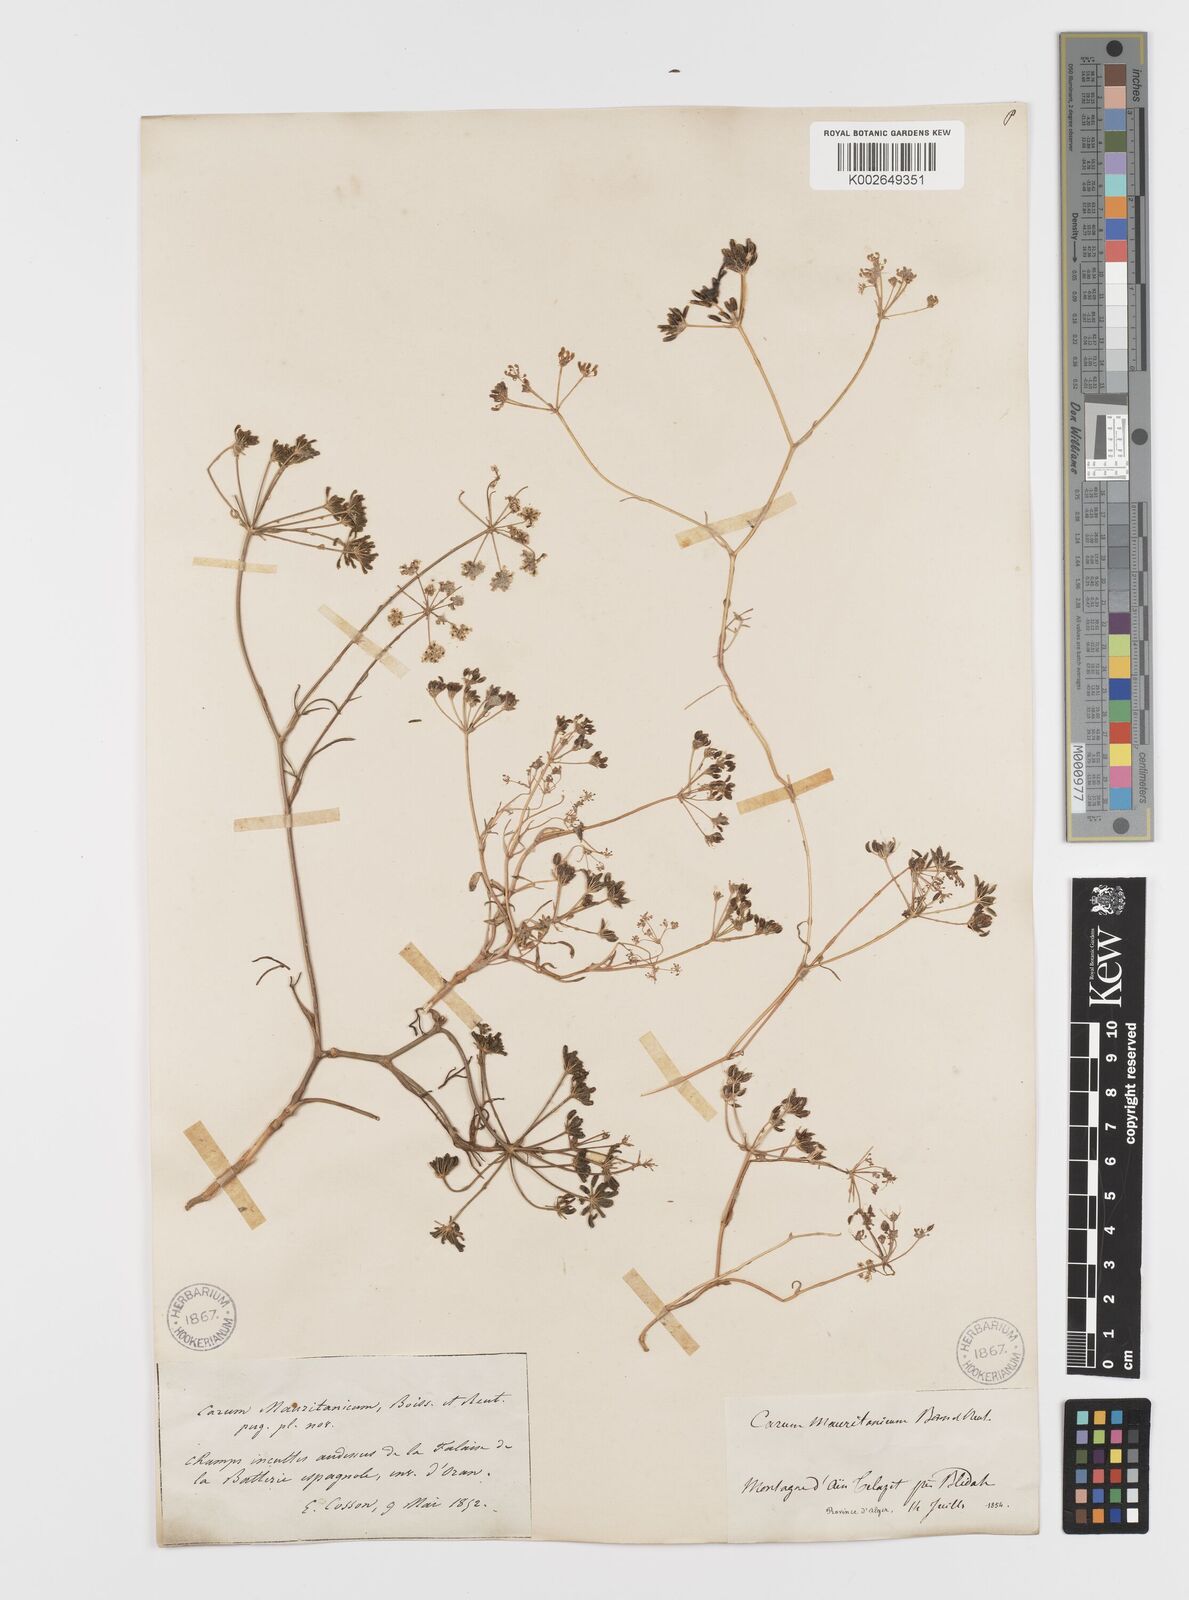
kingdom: Plantae
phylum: Tracheophyta
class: Magnoliopsida
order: Apiales
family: Apiaceae
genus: Bunium
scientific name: Bunium fontanesii
